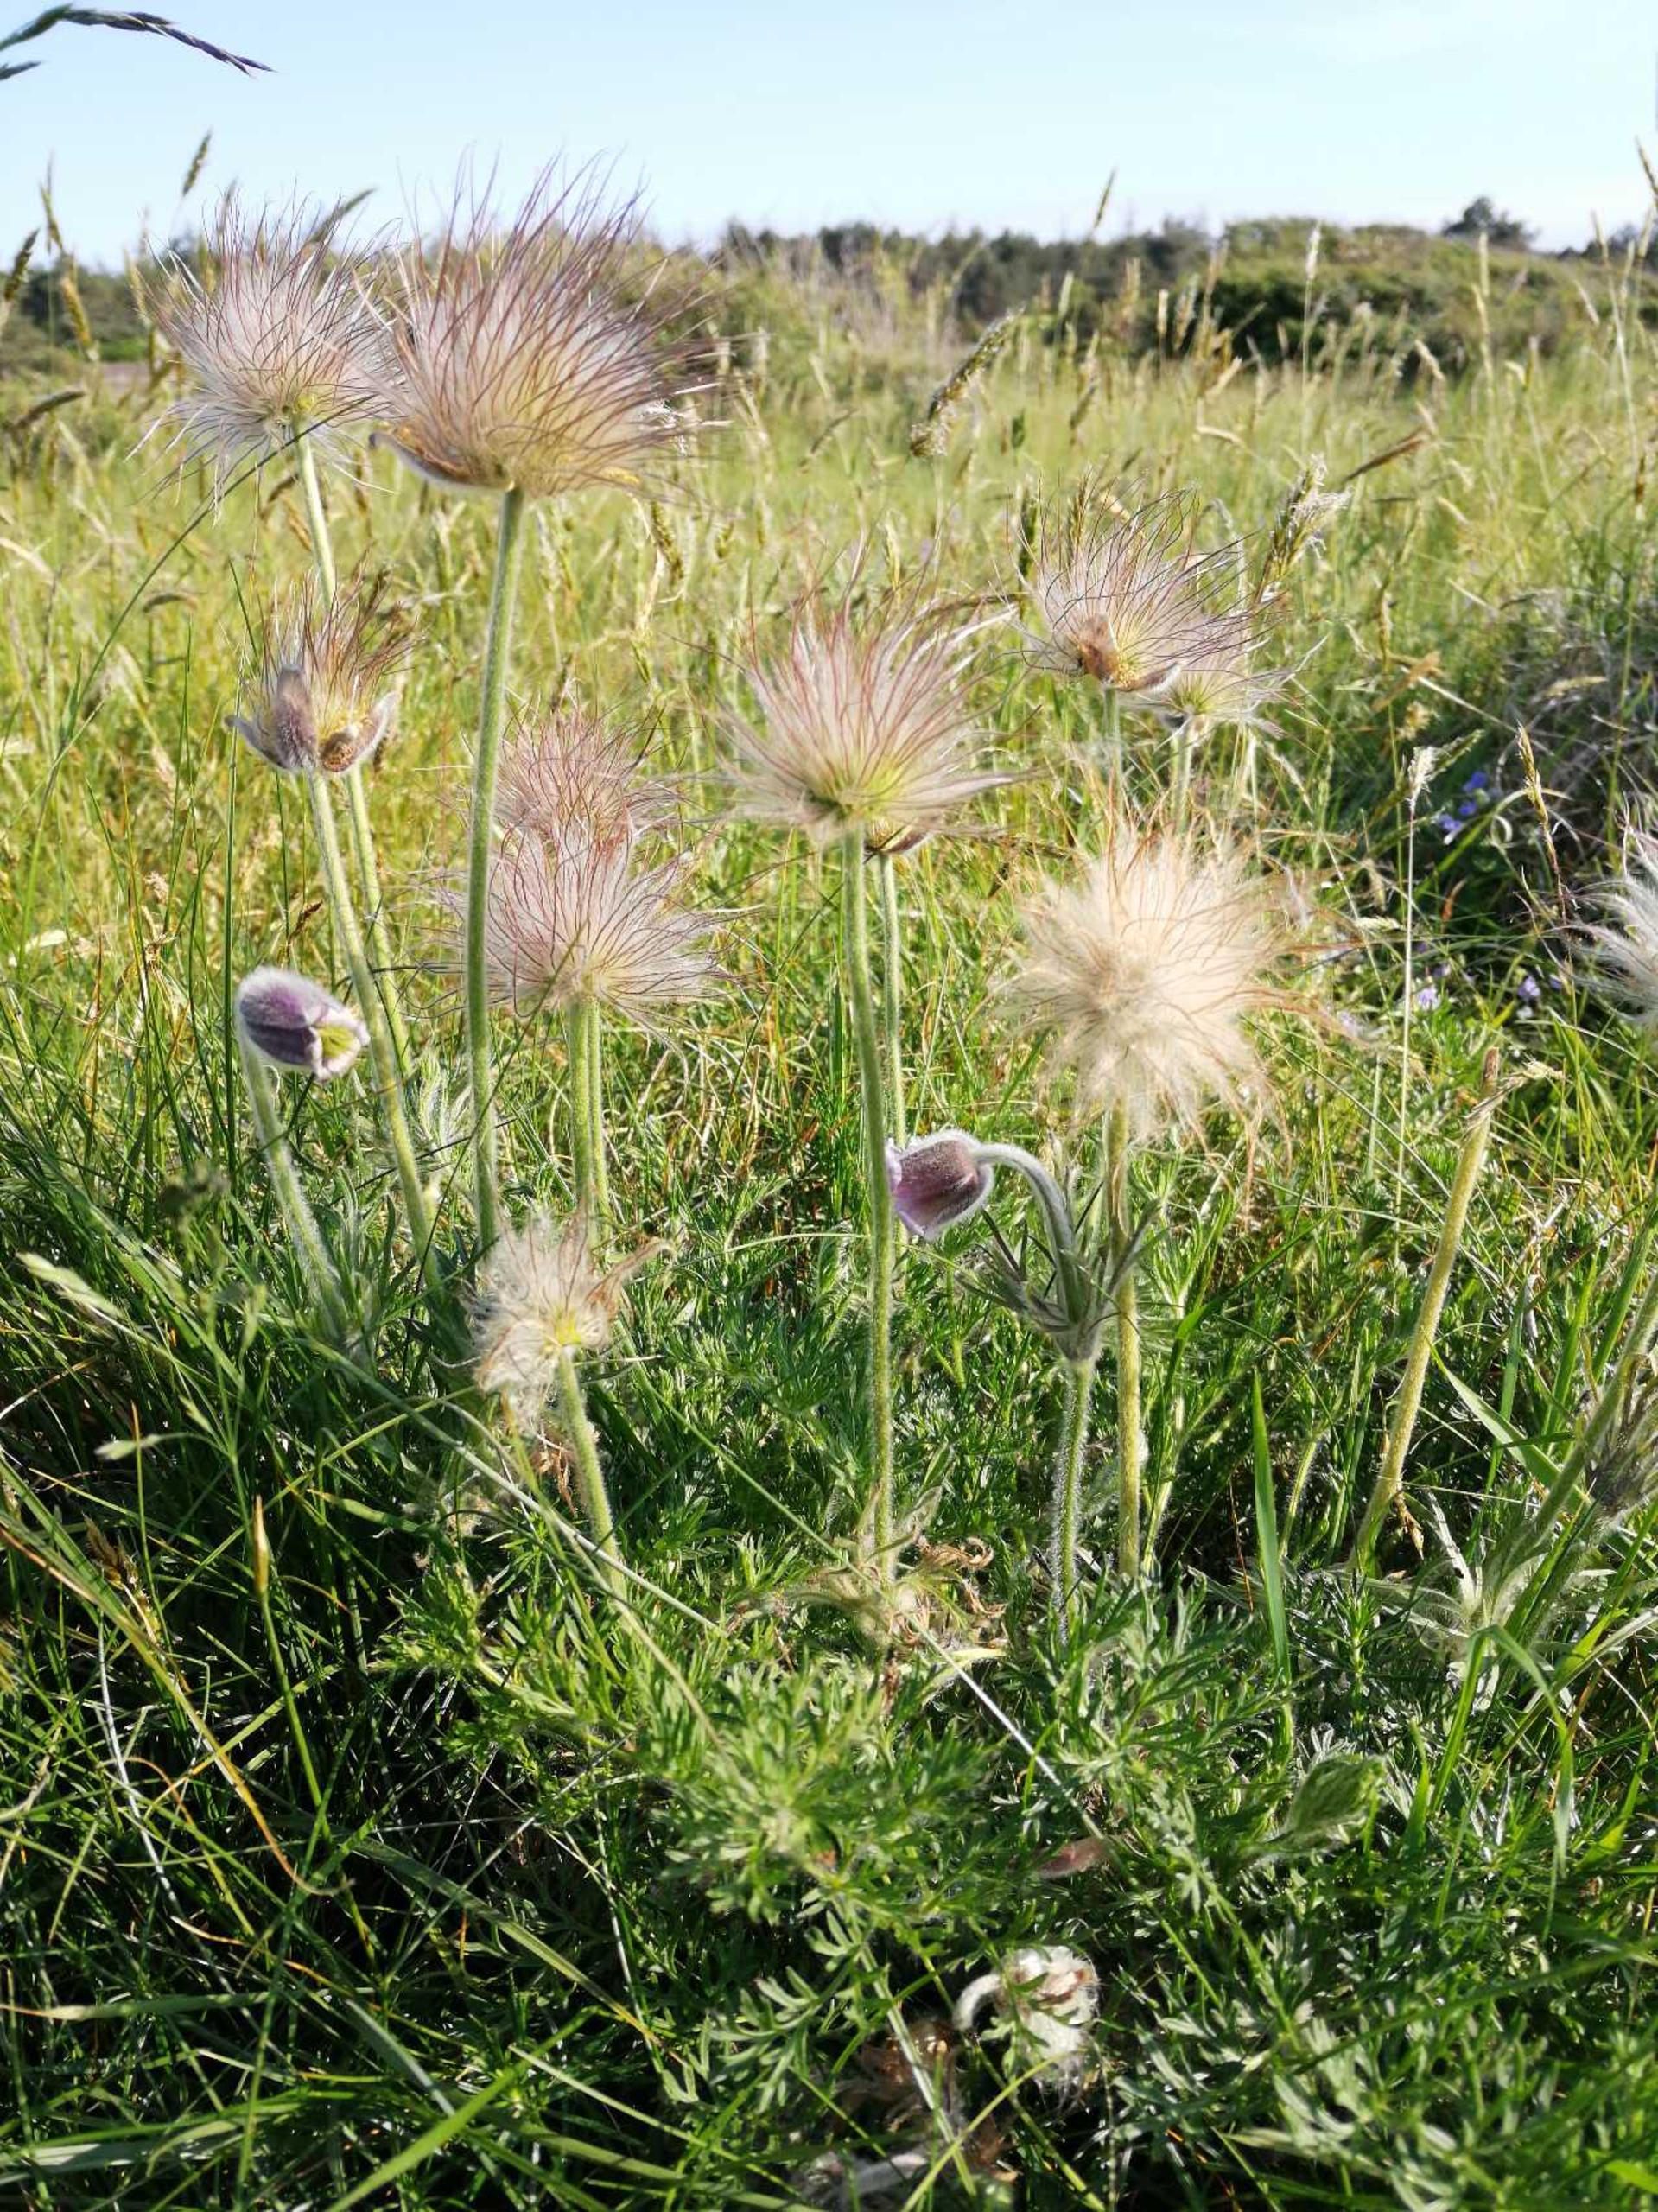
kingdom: Plantae
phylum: Tracheophyta
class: Magnoliopsida
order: Ranunculales
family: Ranunculaceae
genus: Pulsatilla
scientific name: Pulsatilla pratensis
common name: Nikkende kobjælde
